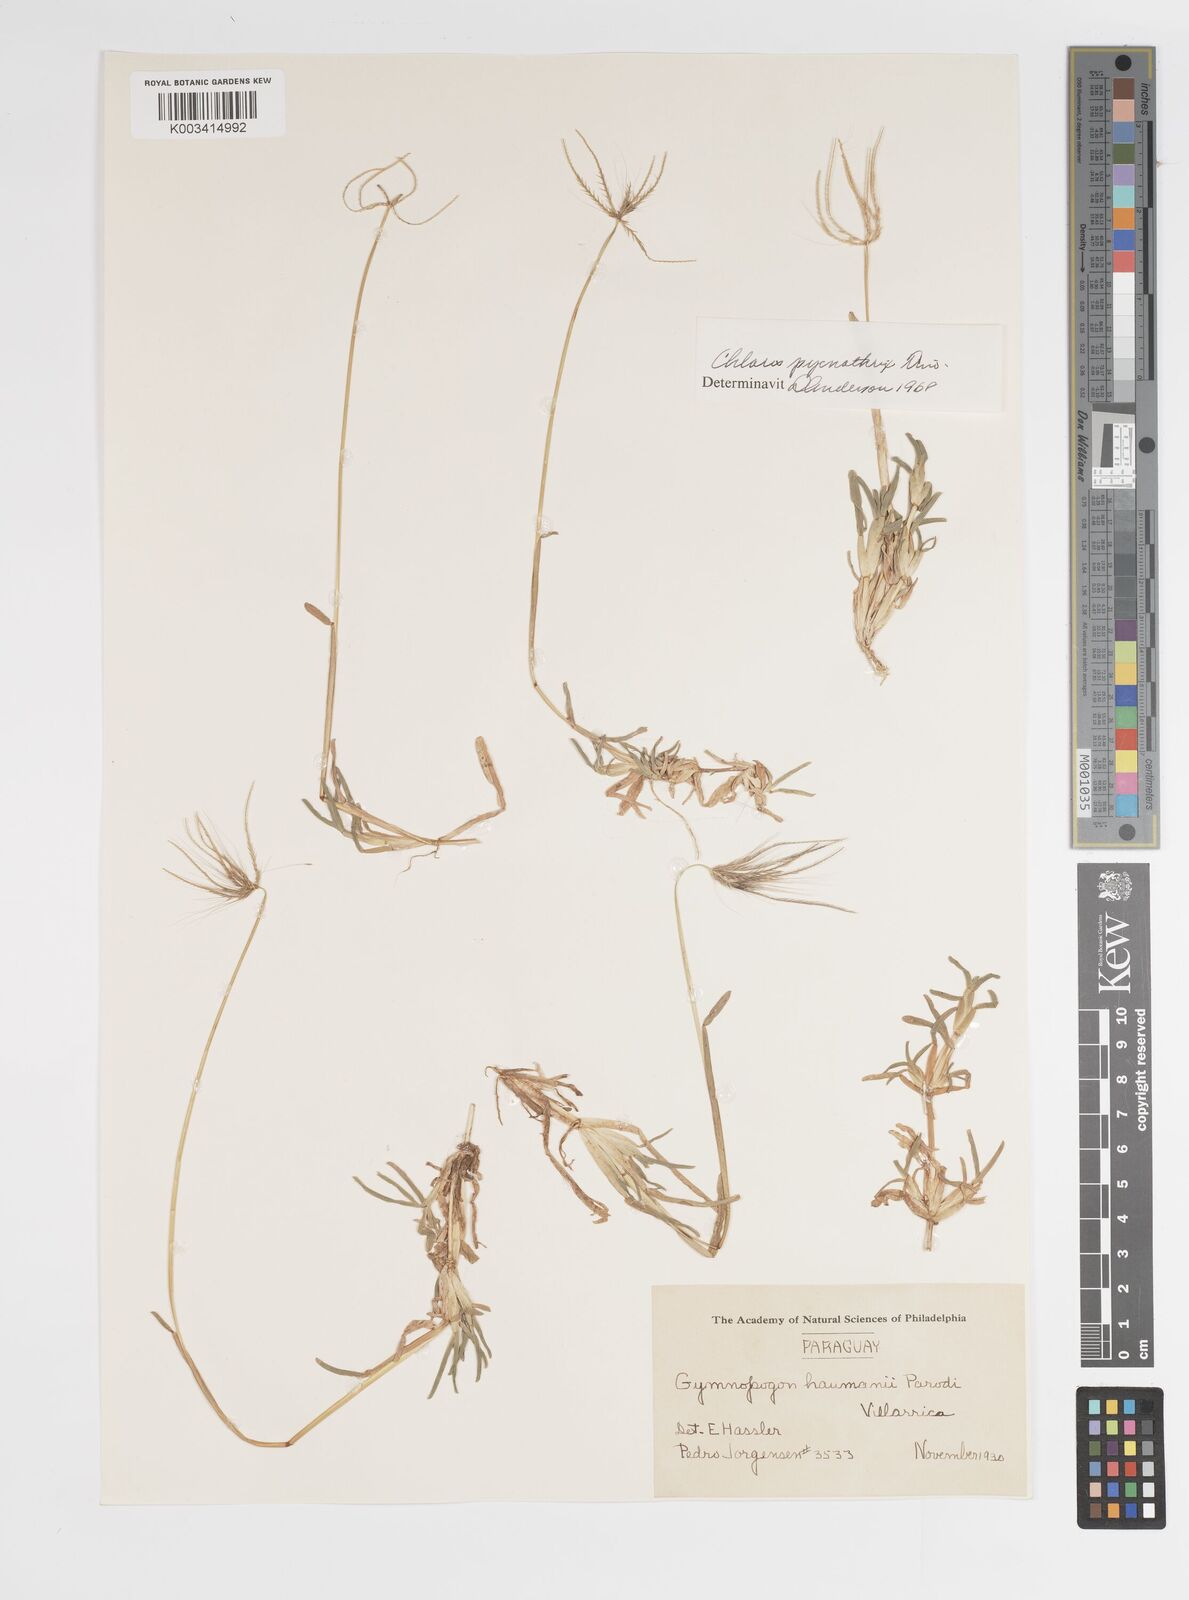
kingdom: Plantae
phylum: Tracheophyta
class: Liliopsida
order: Poales
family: Poaceae
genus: Chloris
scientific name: Chloris pycnothrix
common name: Spiderweb chloris
